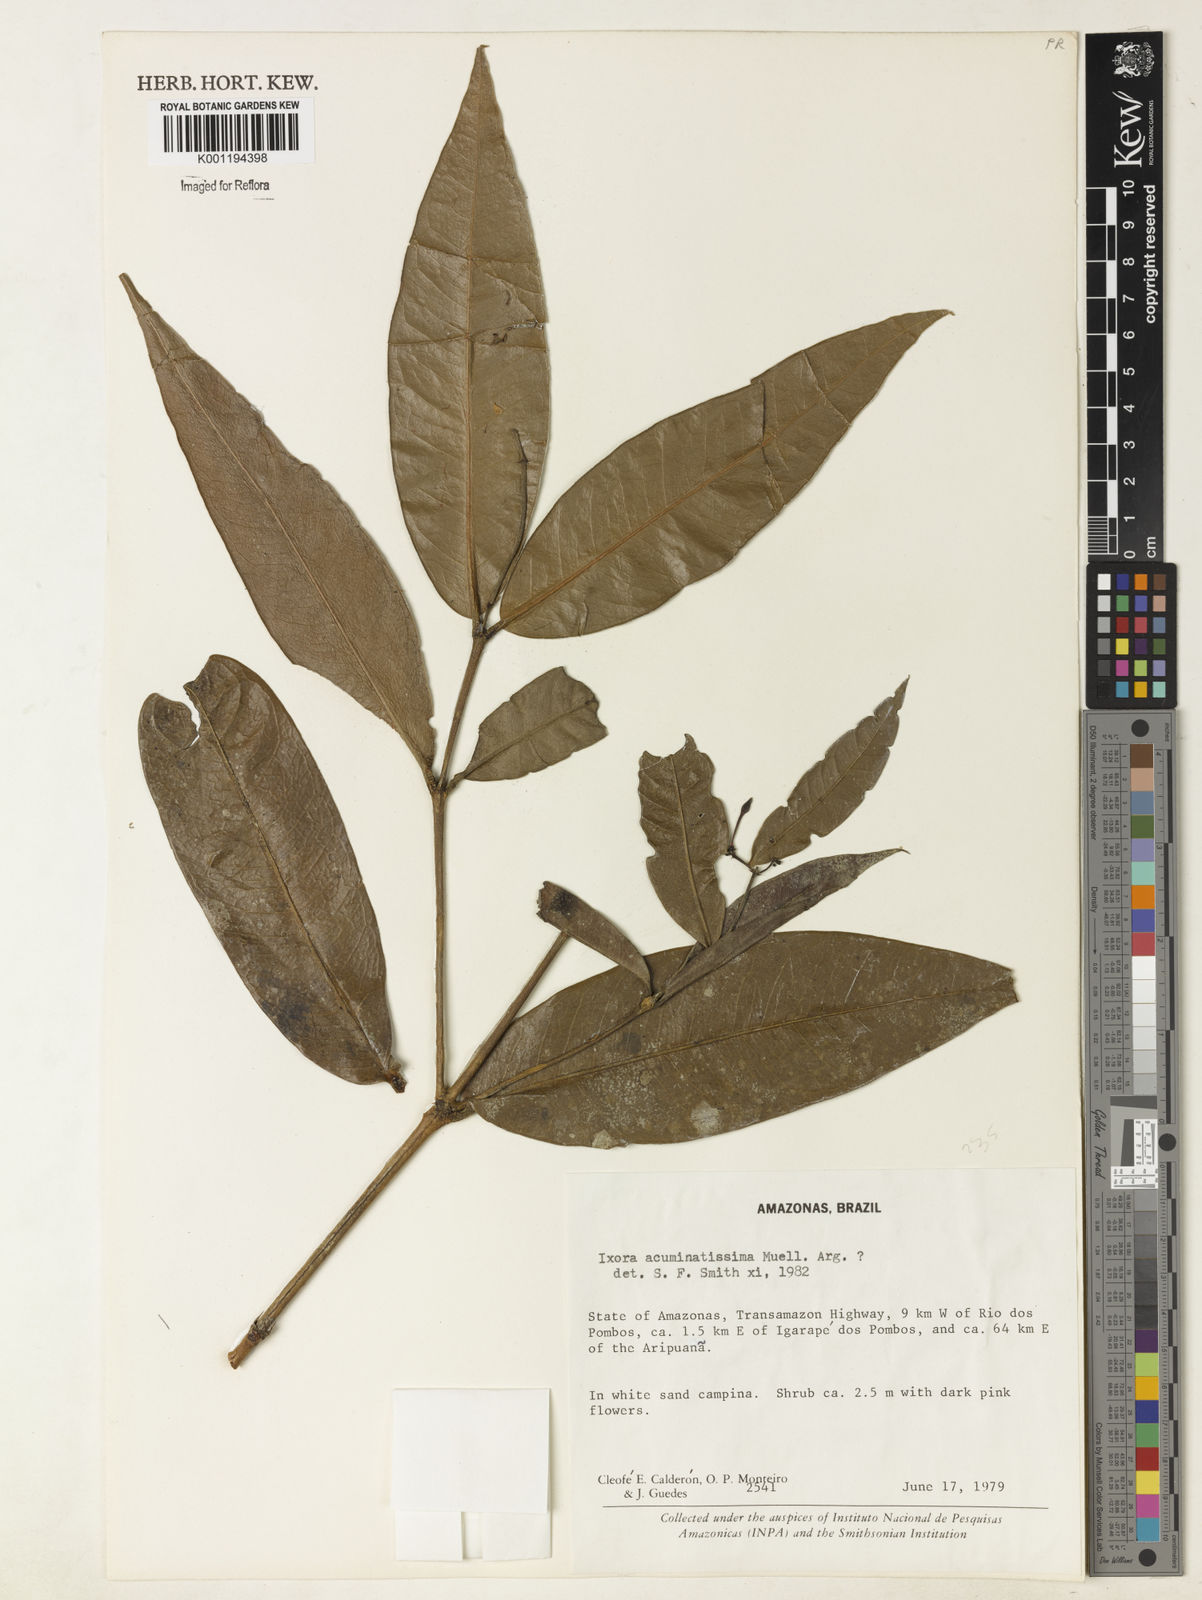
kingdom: Plantae
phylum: Tracheophyta
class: Magnoliopsida
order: Gentianales
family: Rubiaceae
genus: Ixora
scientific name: Ixora
